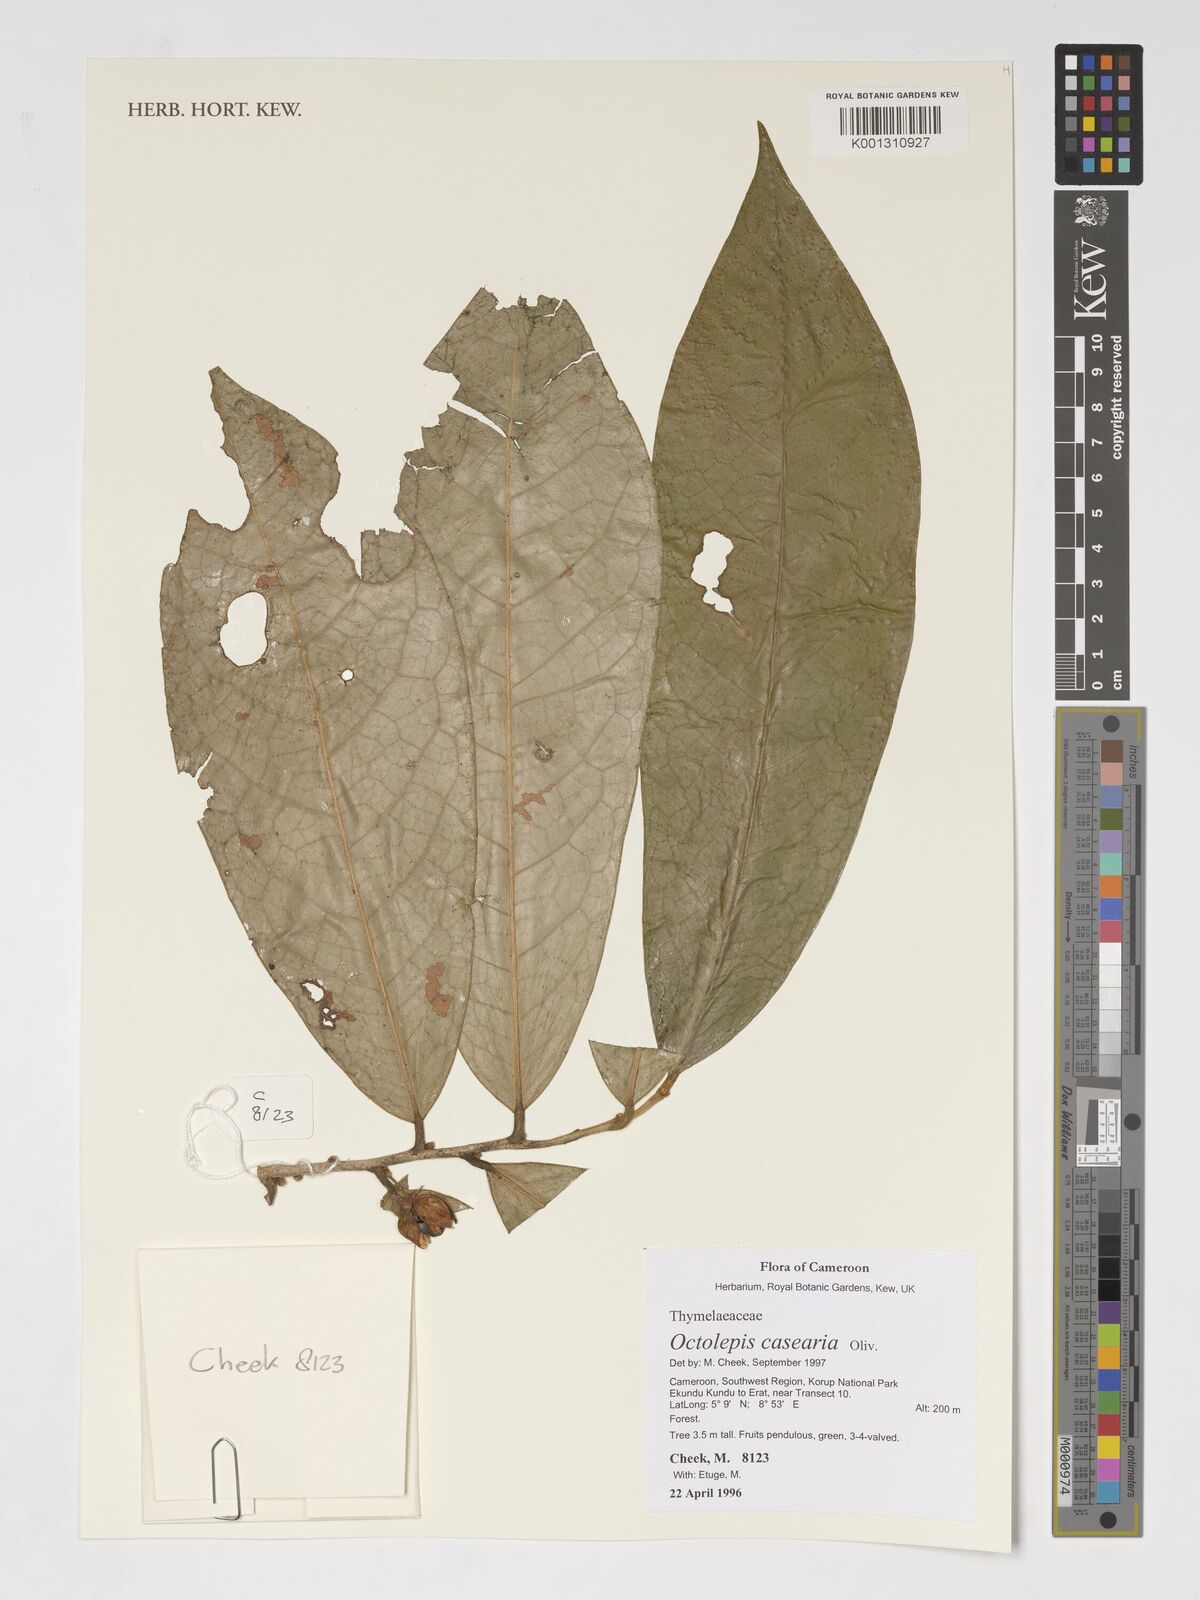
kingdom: Plantae
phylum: Tracheophyta
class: Magnoliopsida
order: Malvales
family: Thymelaeaceae
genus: Octolepis
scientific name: Octolepis casearia
